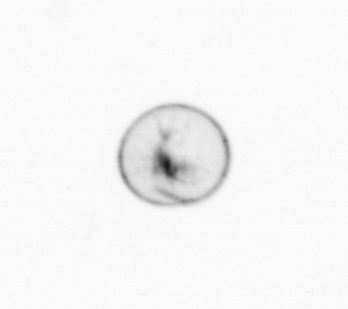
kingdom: Chromista
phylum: Myzozoa
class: Dinophyceae
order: Noctilucales
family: Noctilucaceae
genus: Noctiluca
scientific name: Noctiluca scintillans
